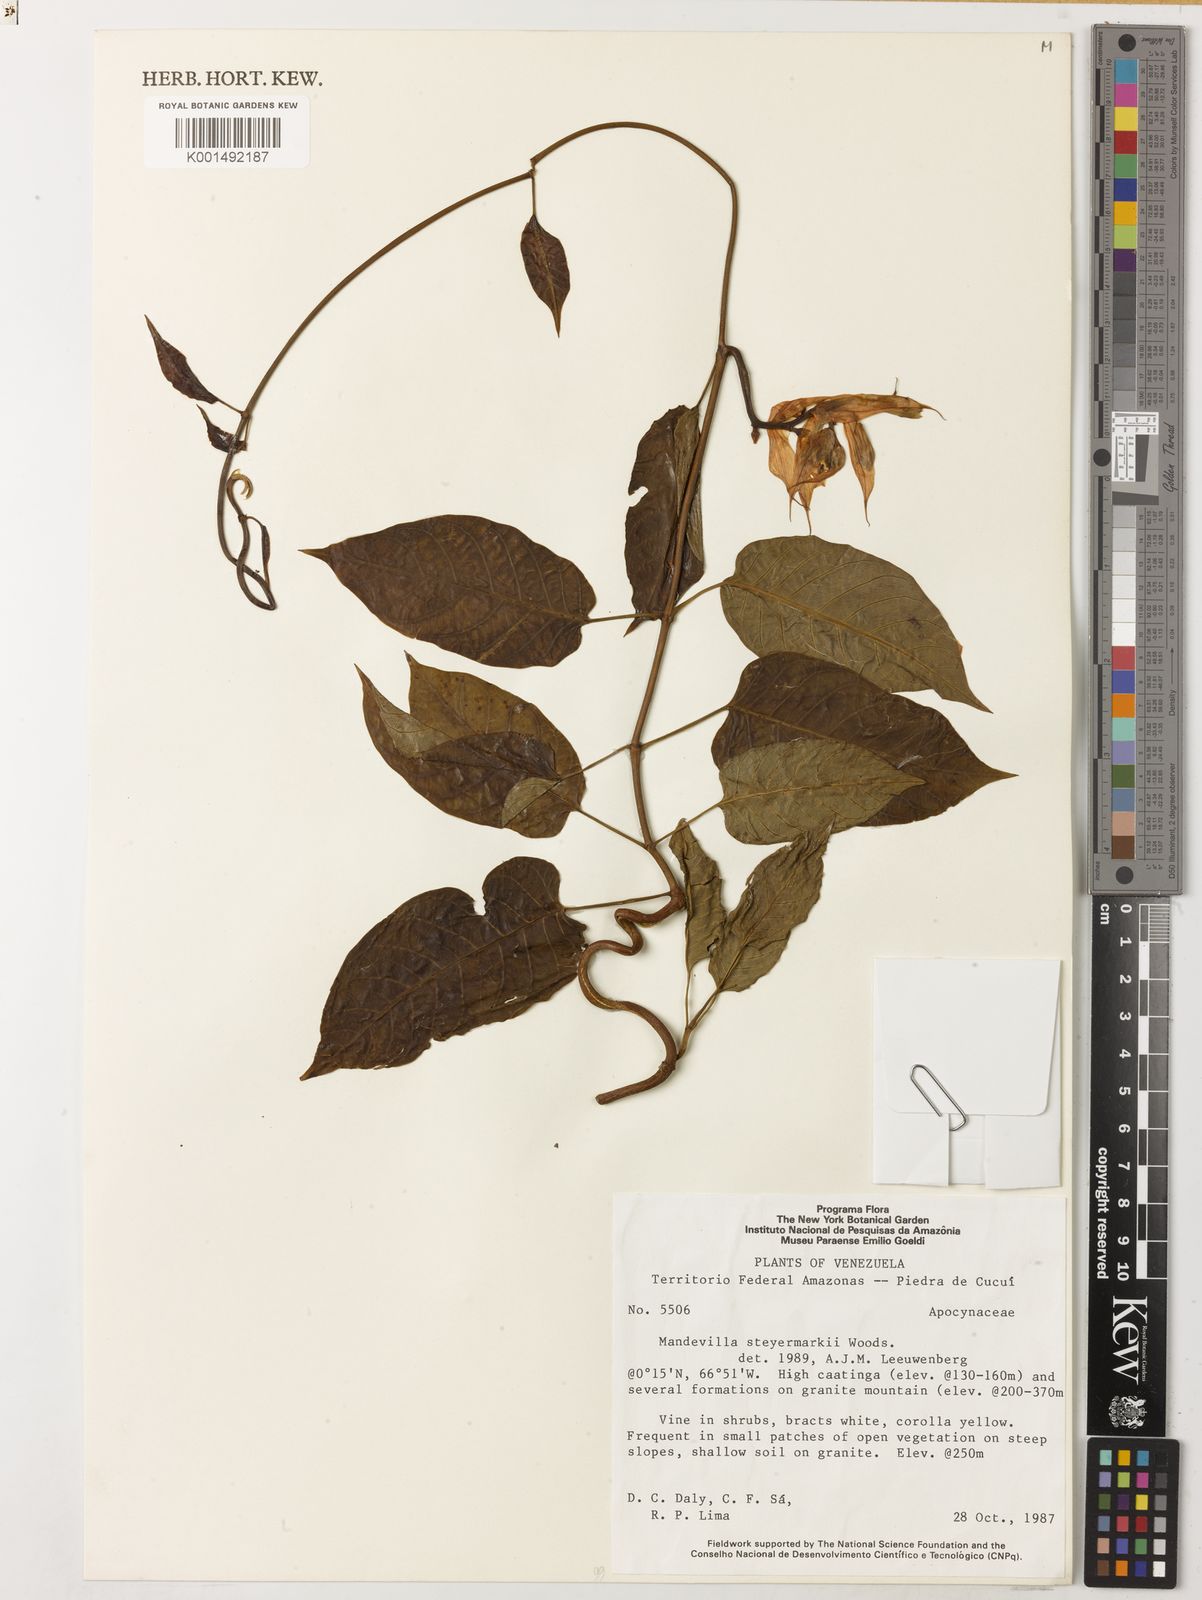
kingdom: Plantae
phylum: Tracheophyta
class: Magnoliopsida
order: Gentianales
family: Apocynaceae
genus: Mandevilla
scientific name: Mandevilla steyermarkii
